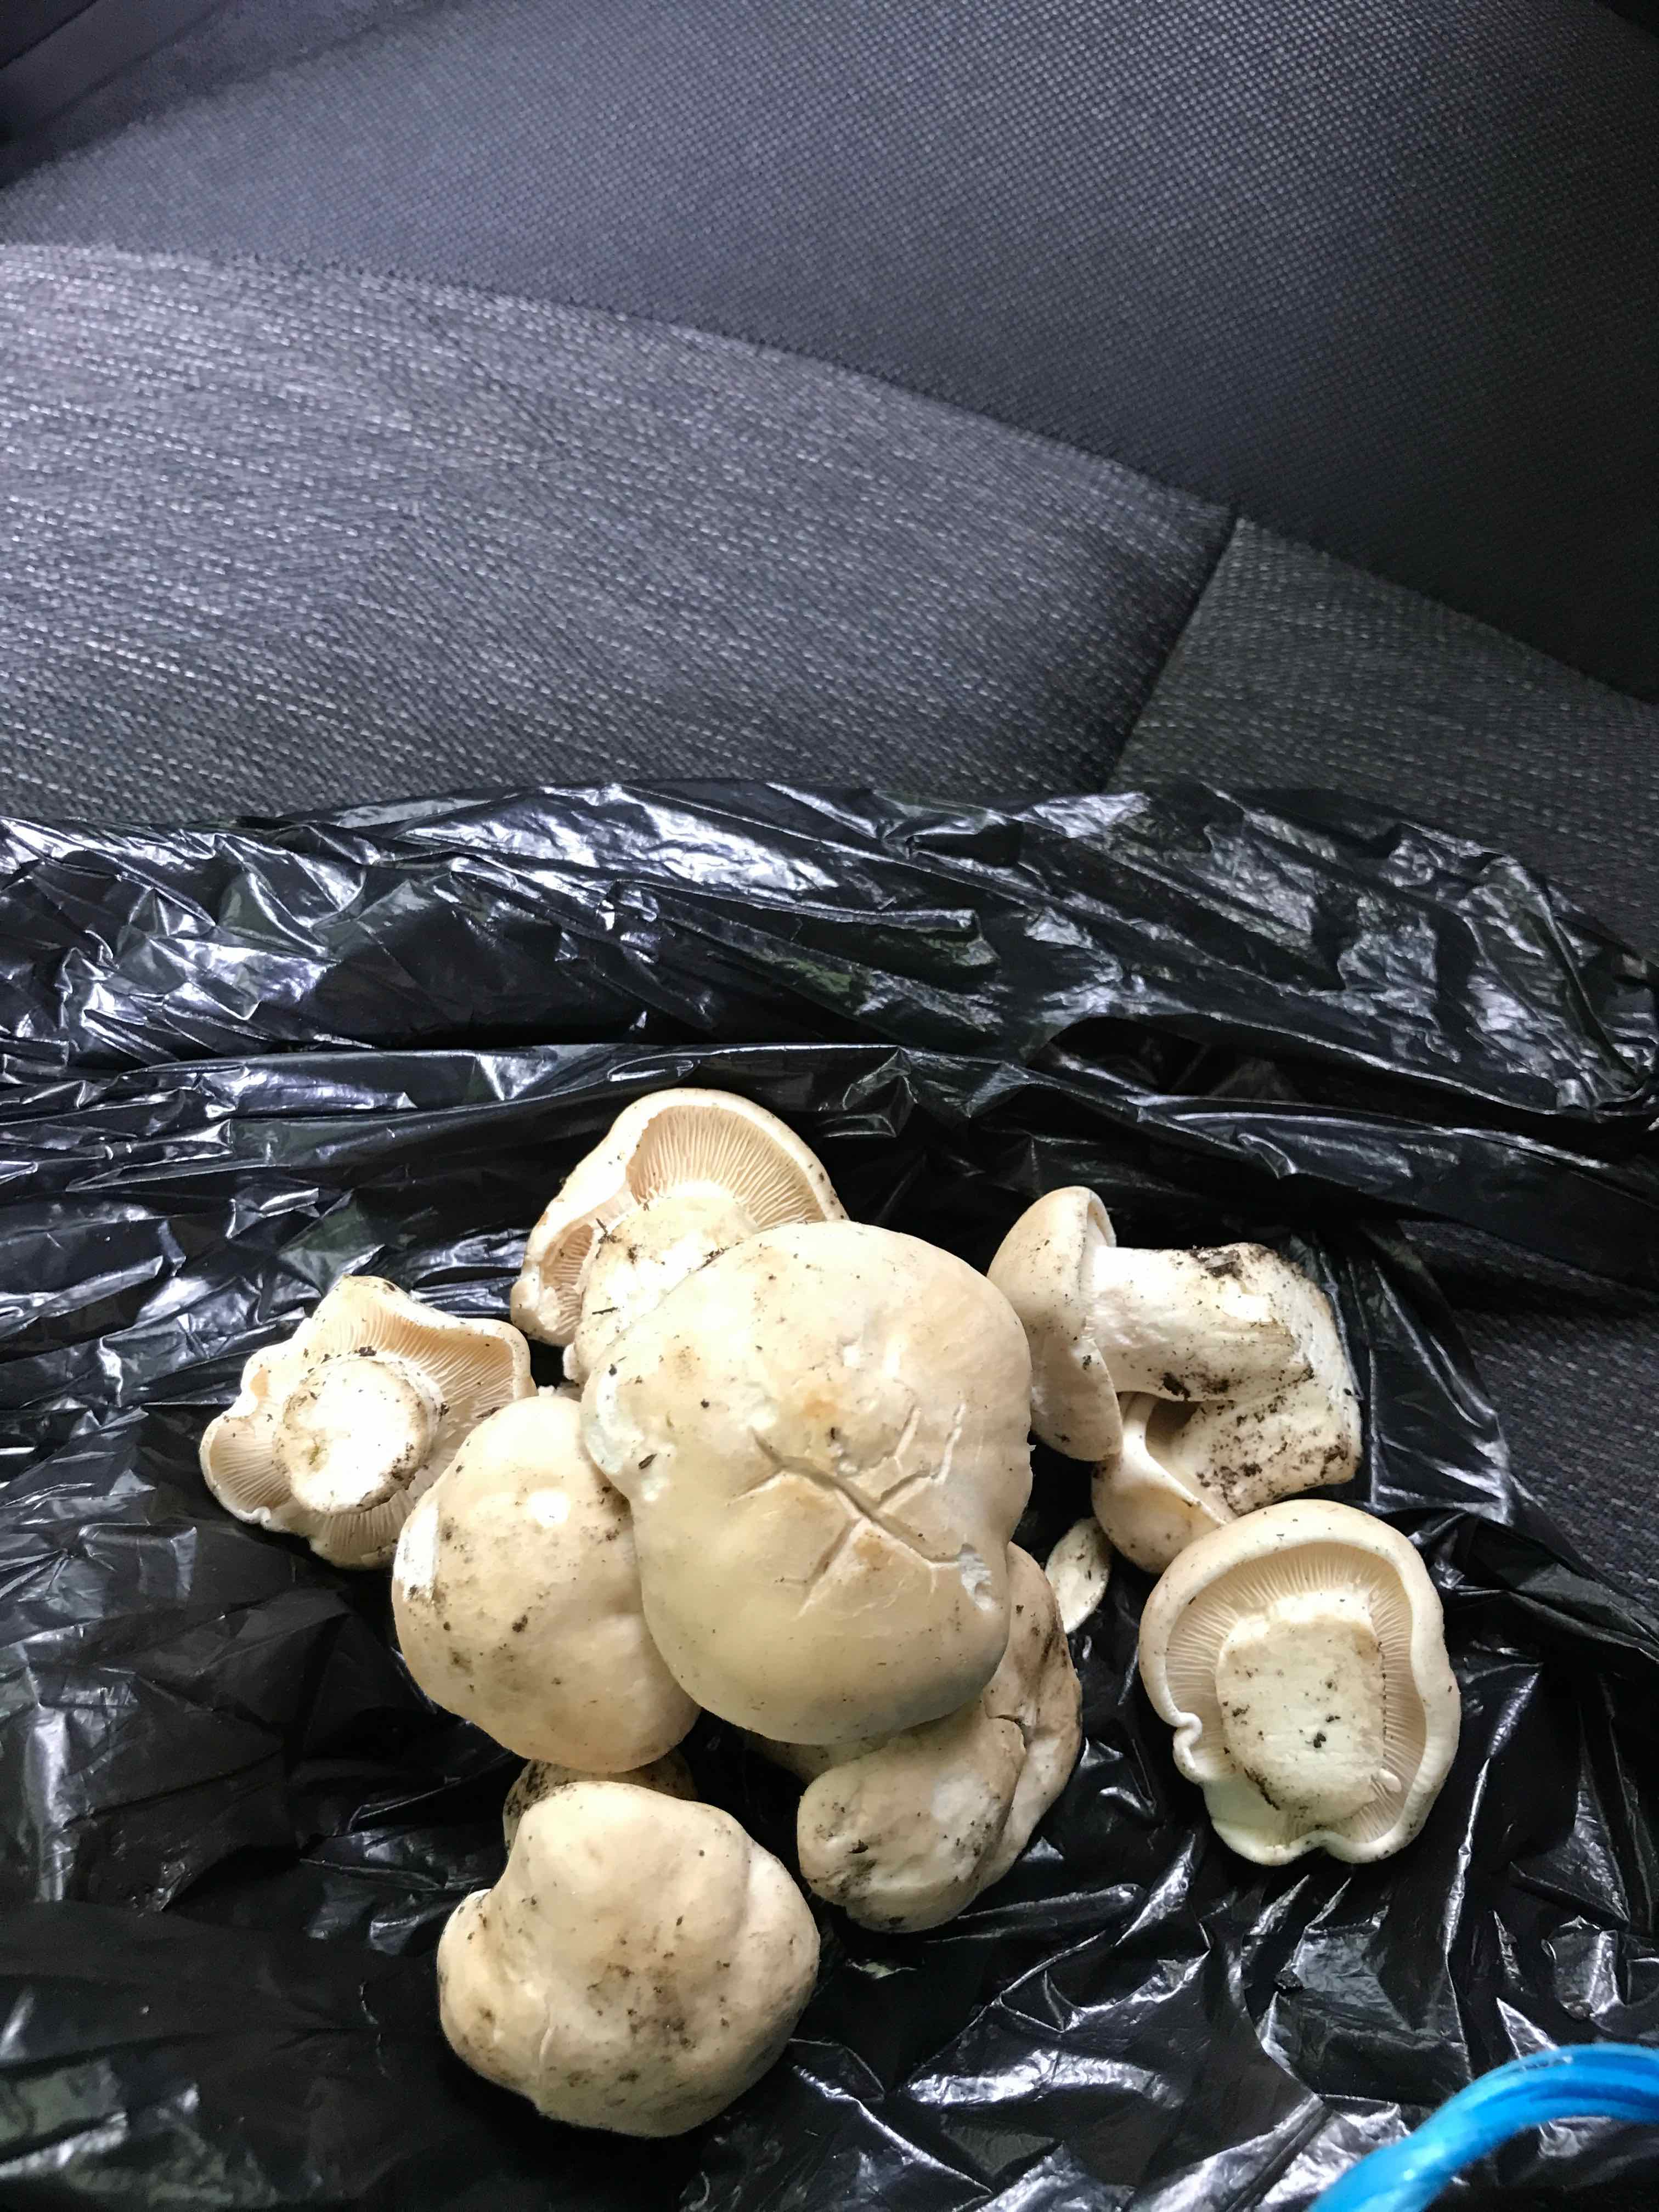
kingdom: Fungi
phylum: Basidiomycota
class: Agaricomycetes
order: Agaricales
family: Lyophyllaceae
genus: Calocybe
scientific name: Calocybe gambosa
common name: vårmusseron
